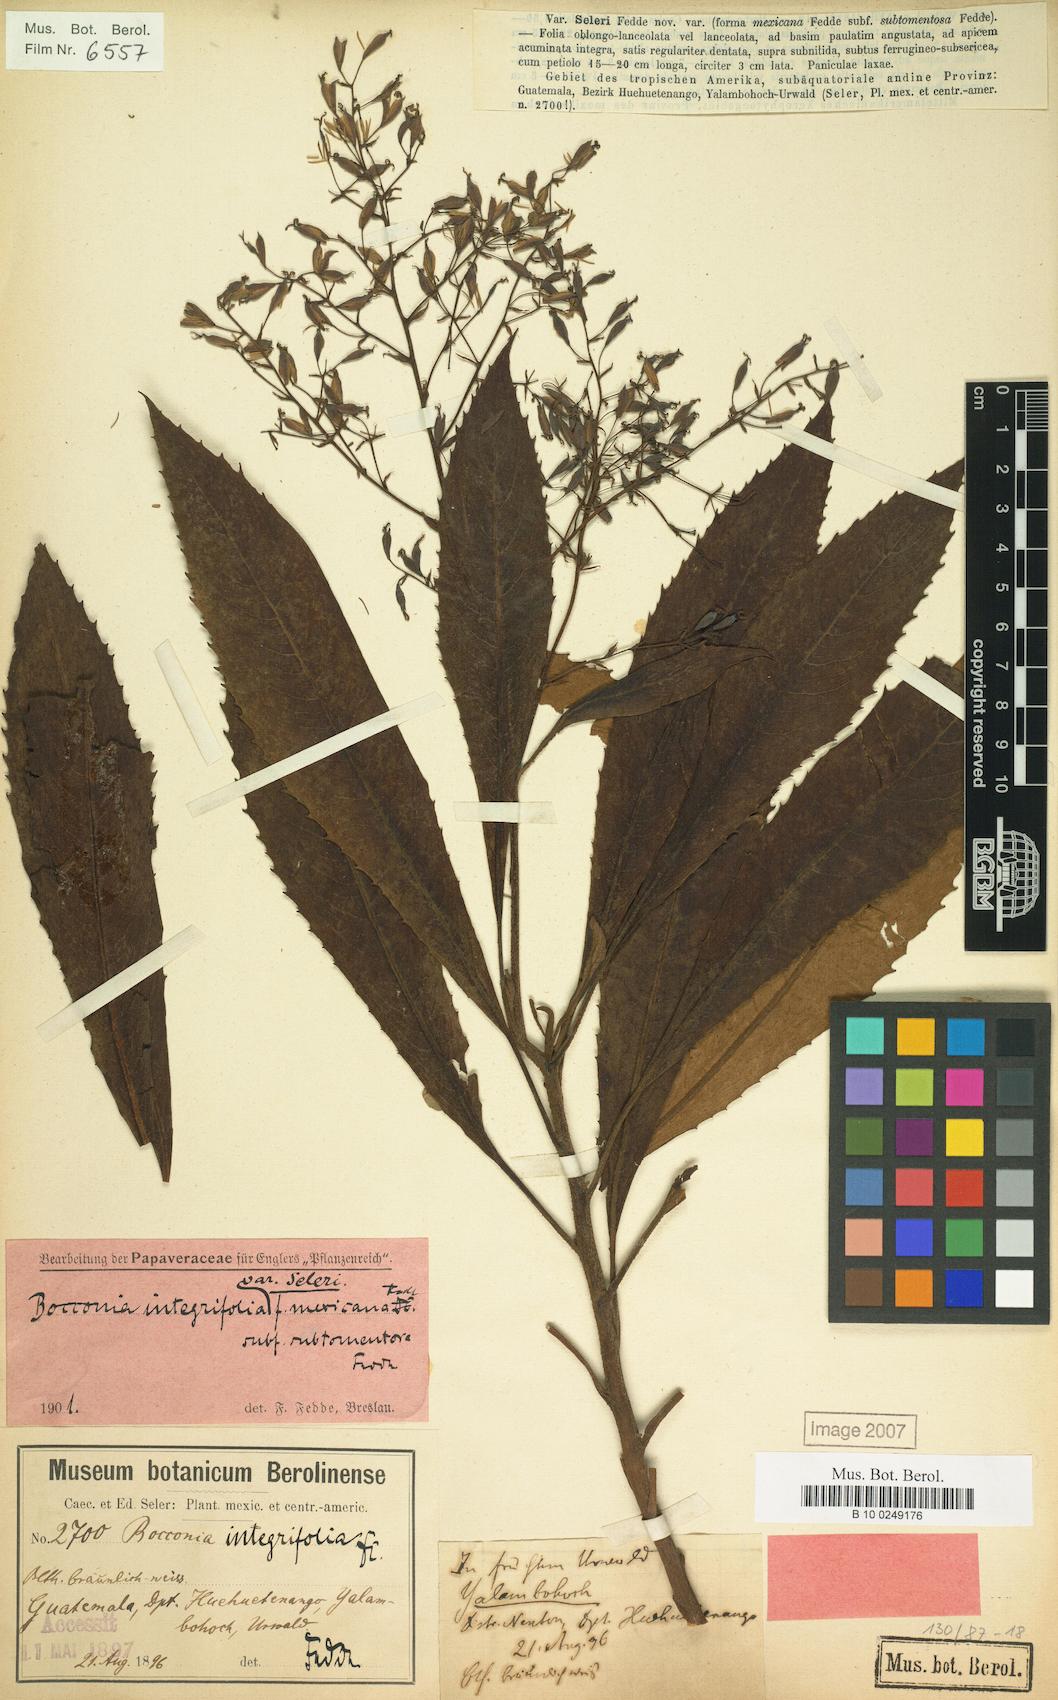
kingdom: Plantae
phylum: Tracheophyta
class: Magnoliopsida
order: Ranunculales
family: Papaveraceae
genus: Bocconia
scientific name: Bocconia
